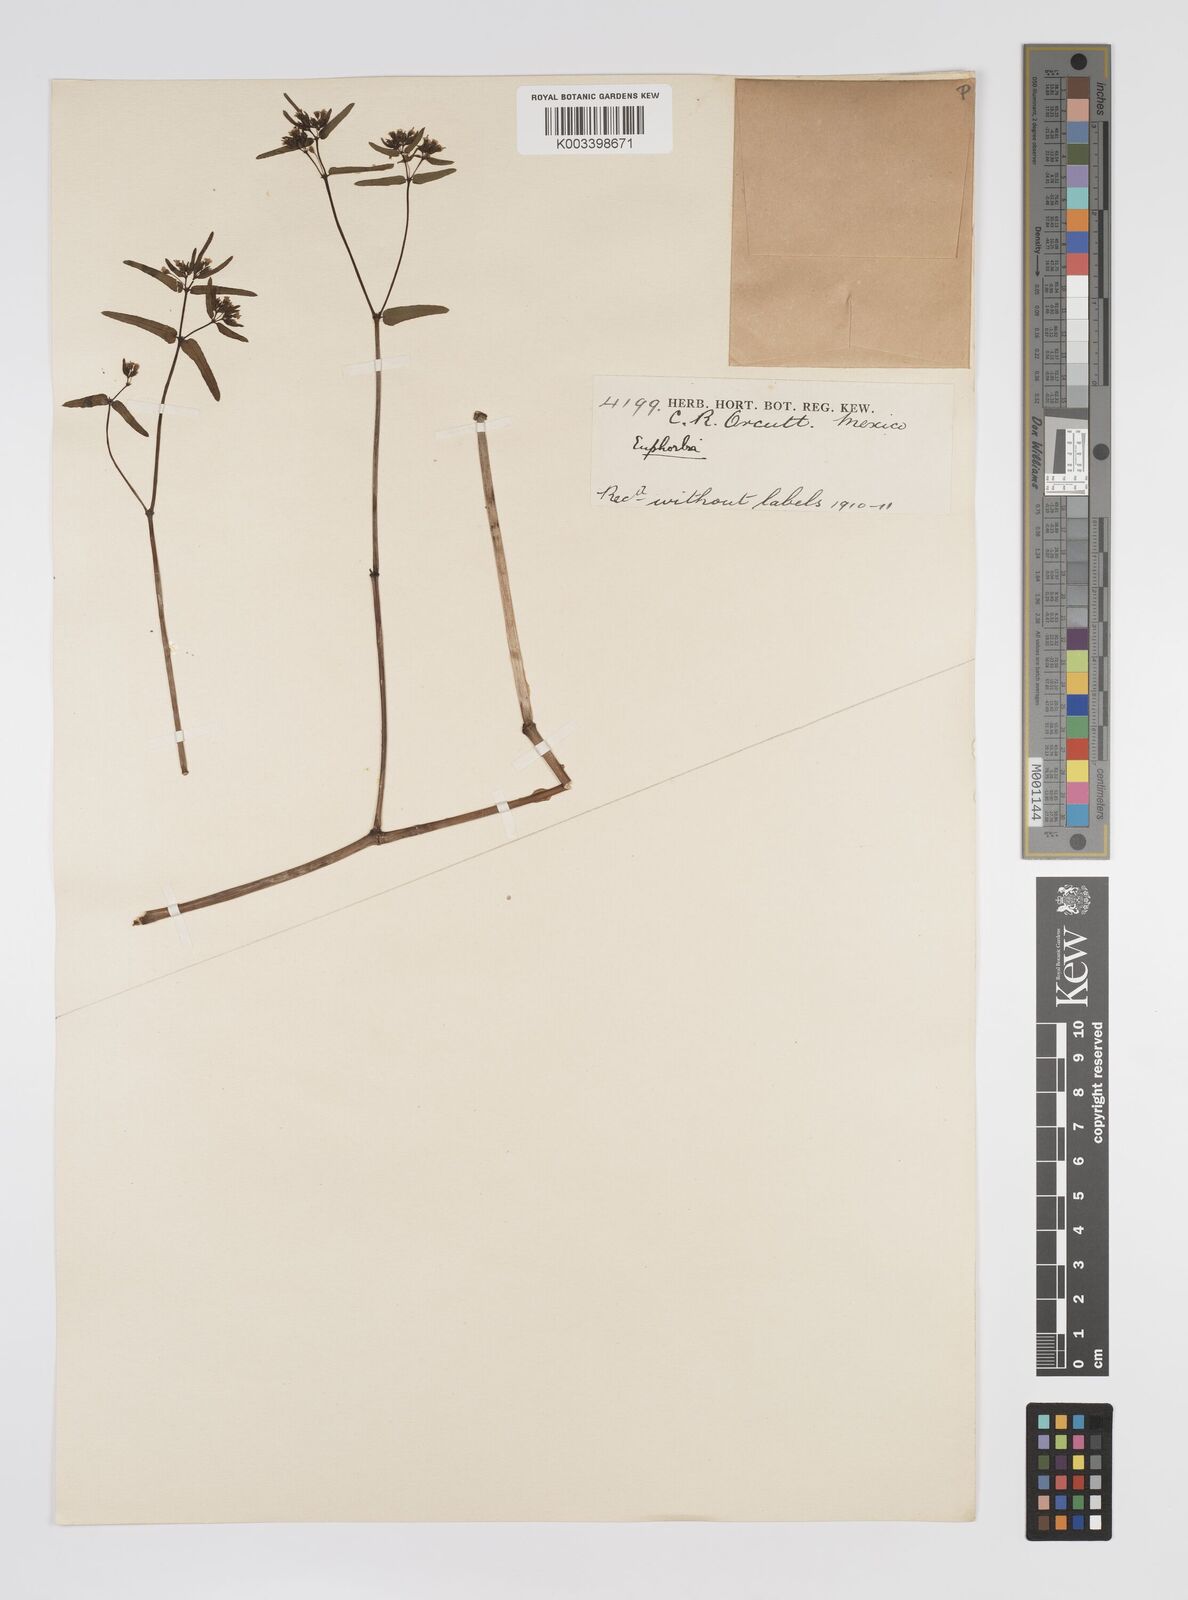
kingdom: Plantae
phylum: Tracheophyta
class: Magnoliopsida
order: Malpighiales
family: Euphorbiaceae
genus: Euphorbia
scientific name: Euphorbia
